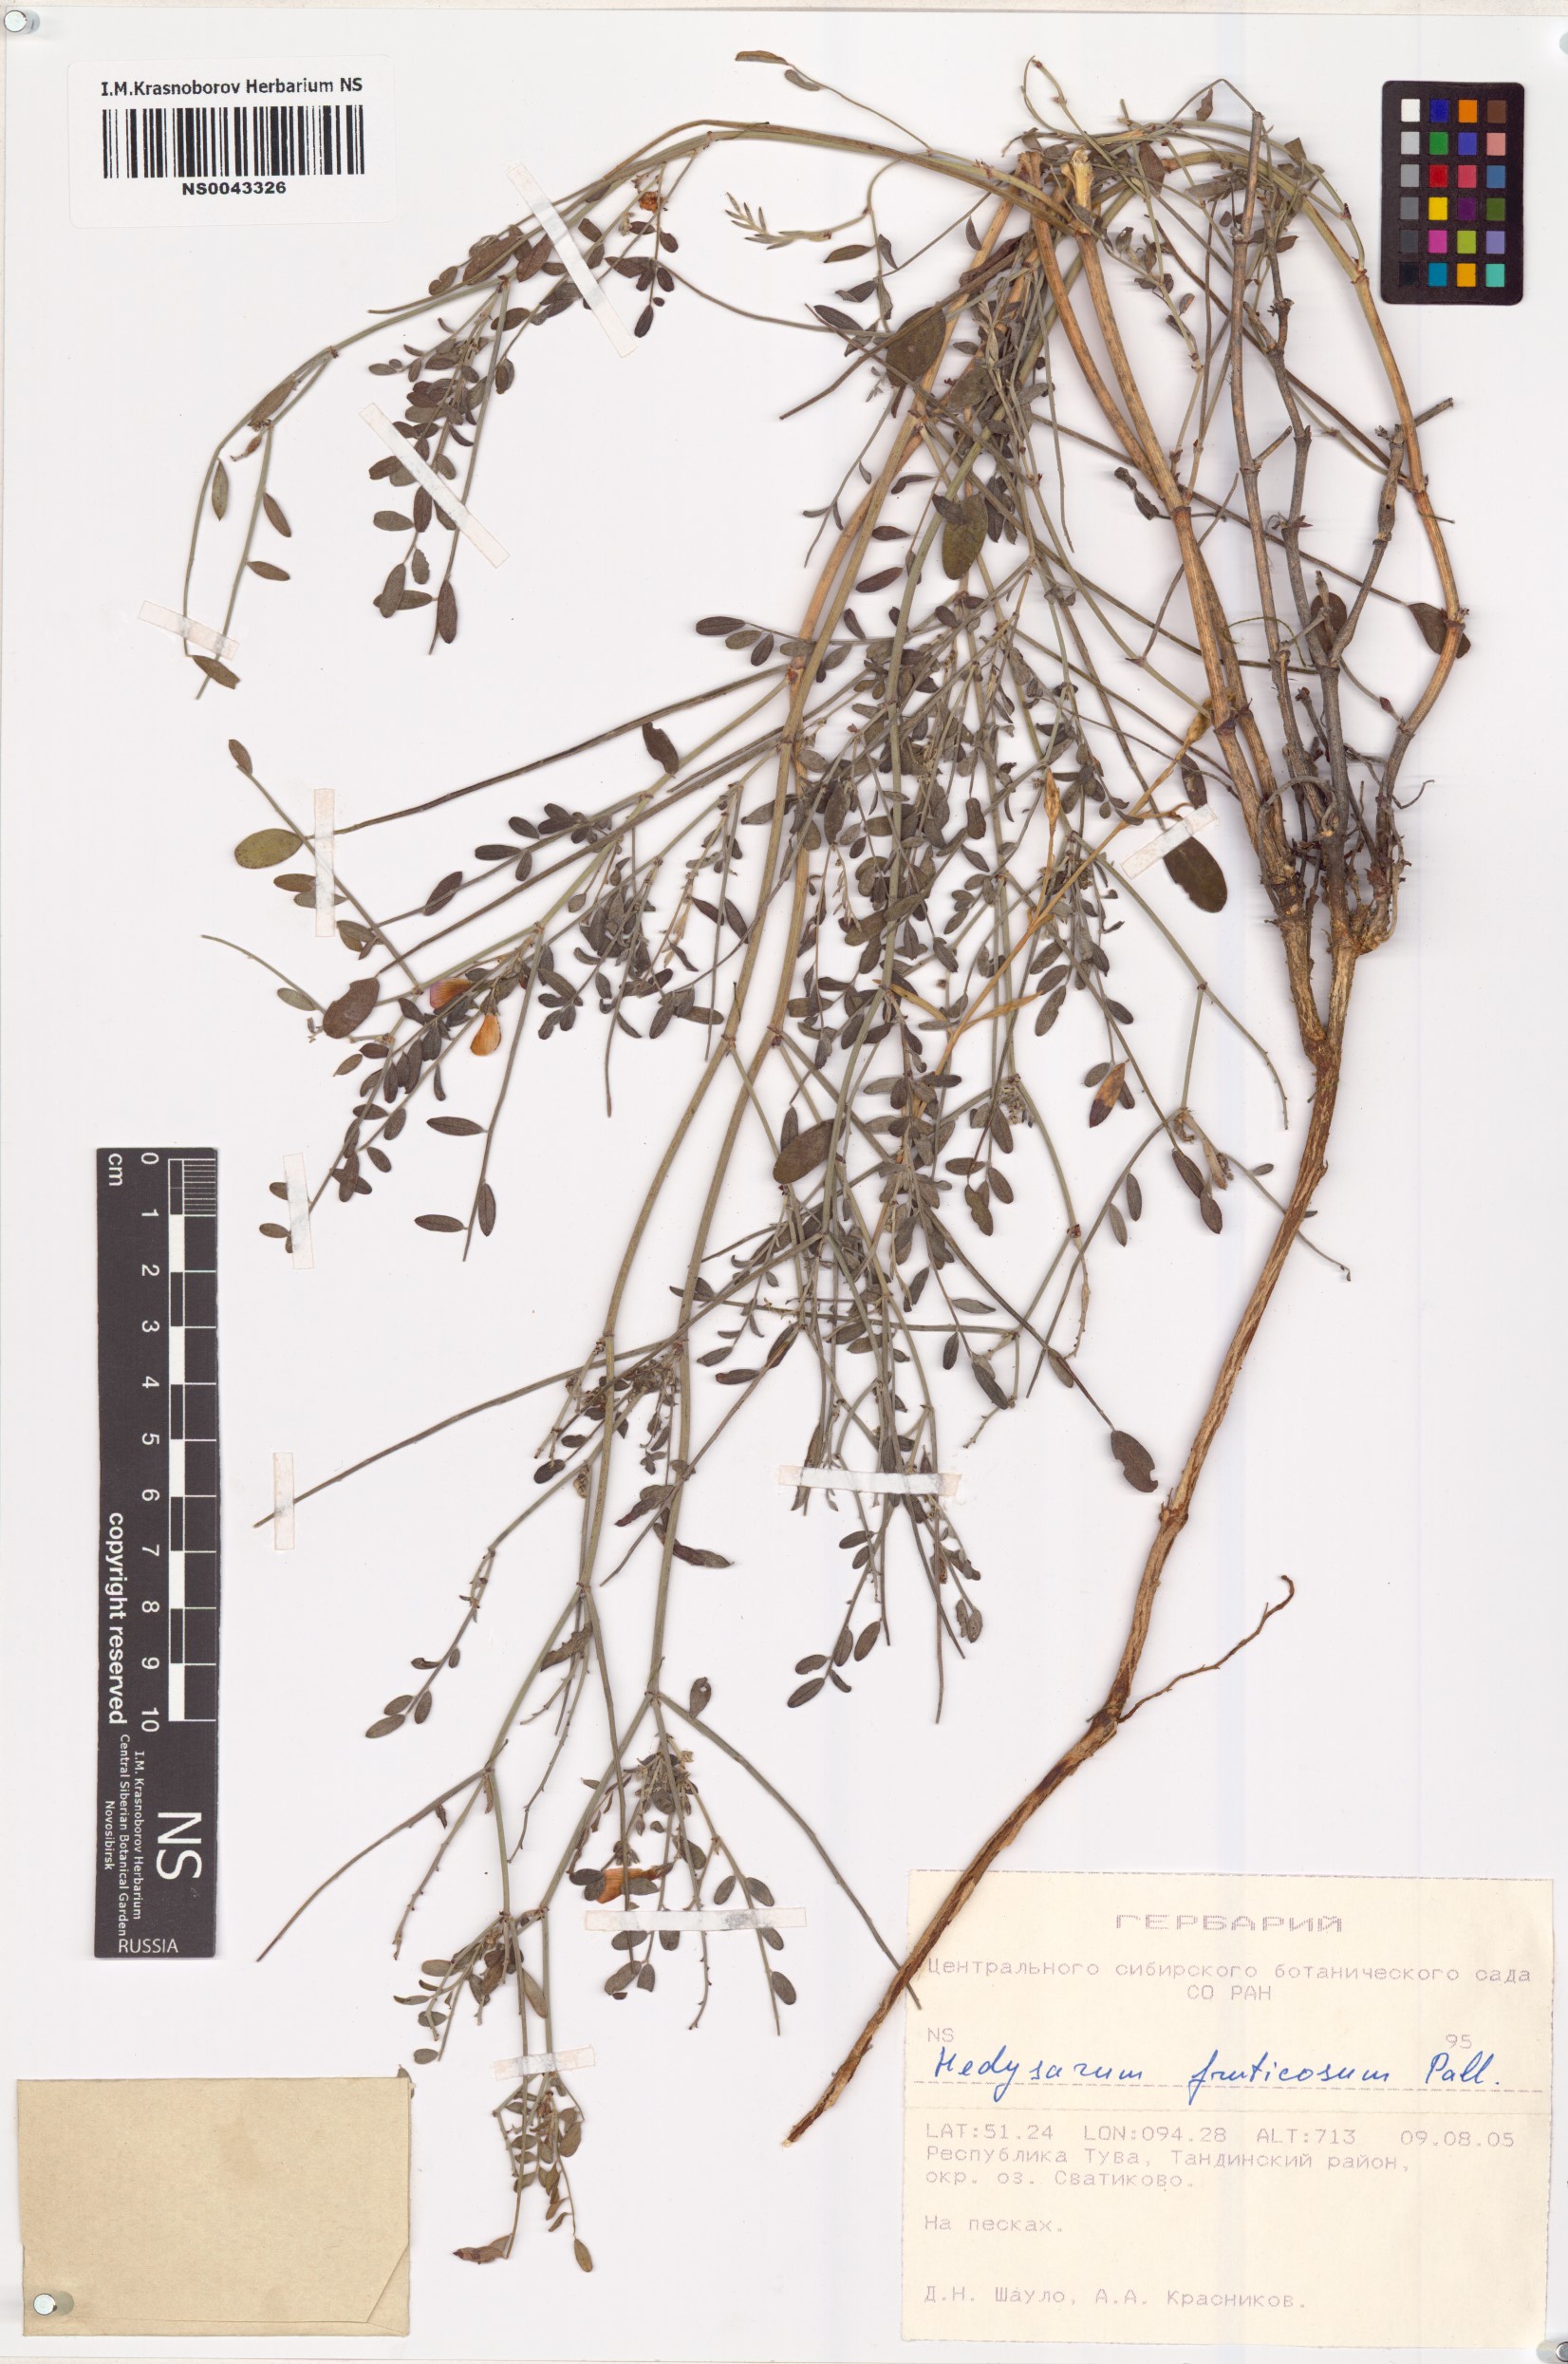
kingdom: Plantae
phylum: Tracheophyta
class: Magnoliopsida
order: Fabales
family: Fabaceae
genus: Corethrodendron
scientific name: Corethrodendron fruticosum
